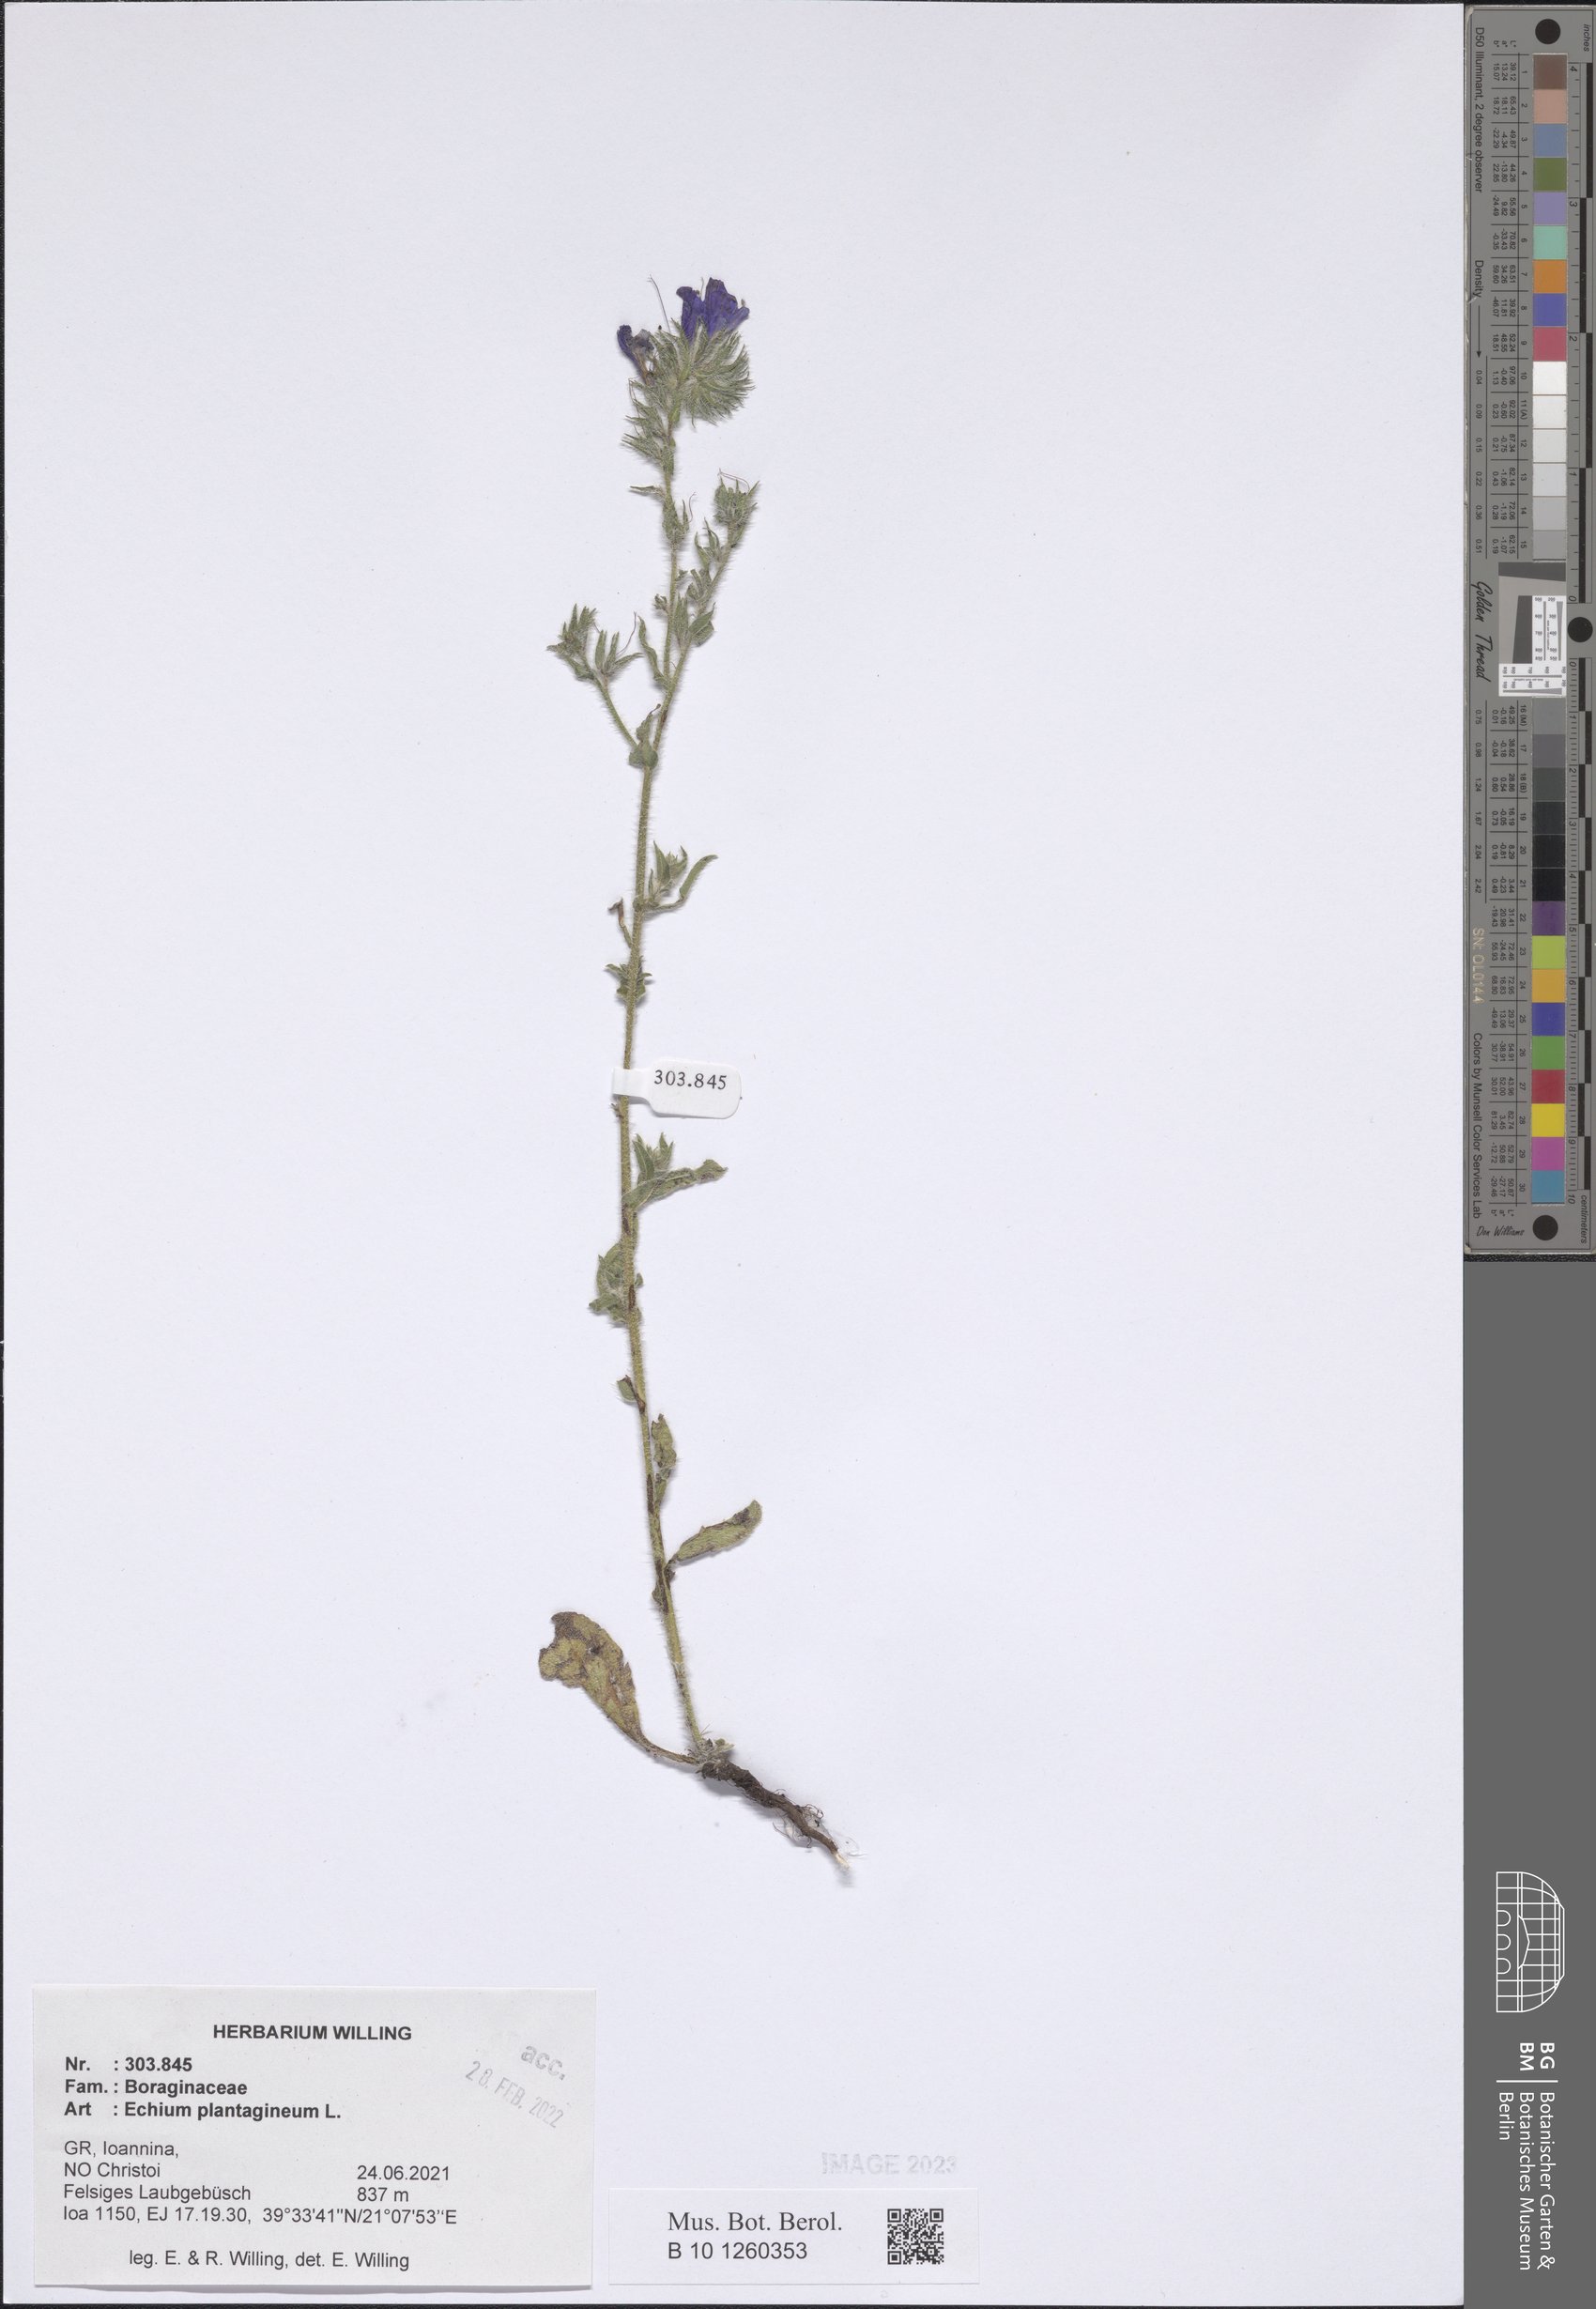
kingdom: Plantae
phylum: Tracheophyta
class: Magnoliopsida
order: Boraginales
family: Boraginaceae
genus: Echium
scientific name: Echium plantagineum
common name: Purple viper's-bugloss
